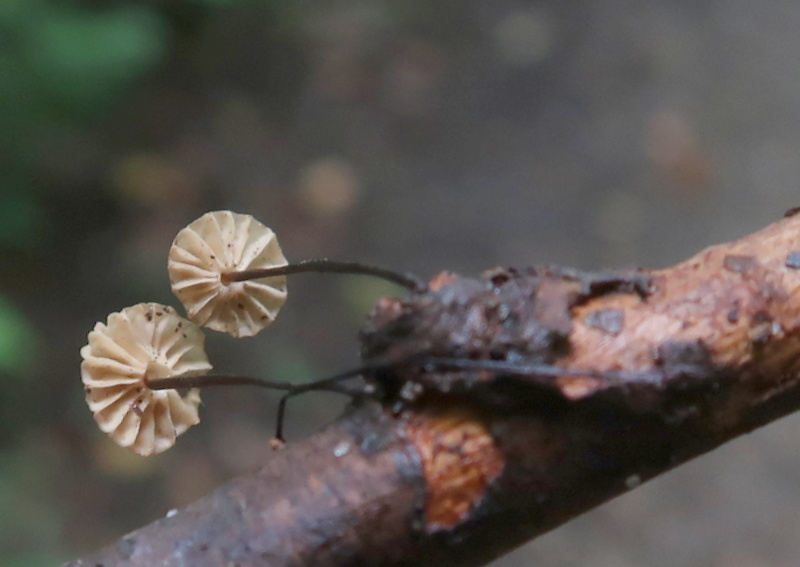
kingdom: Fungi
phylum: Basidiomycota
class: Agaricomycetes
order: Agaricales
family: Marasmiaceae
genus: Marasmius
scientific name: Marasmius rotula
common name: hjul-bruskhat
